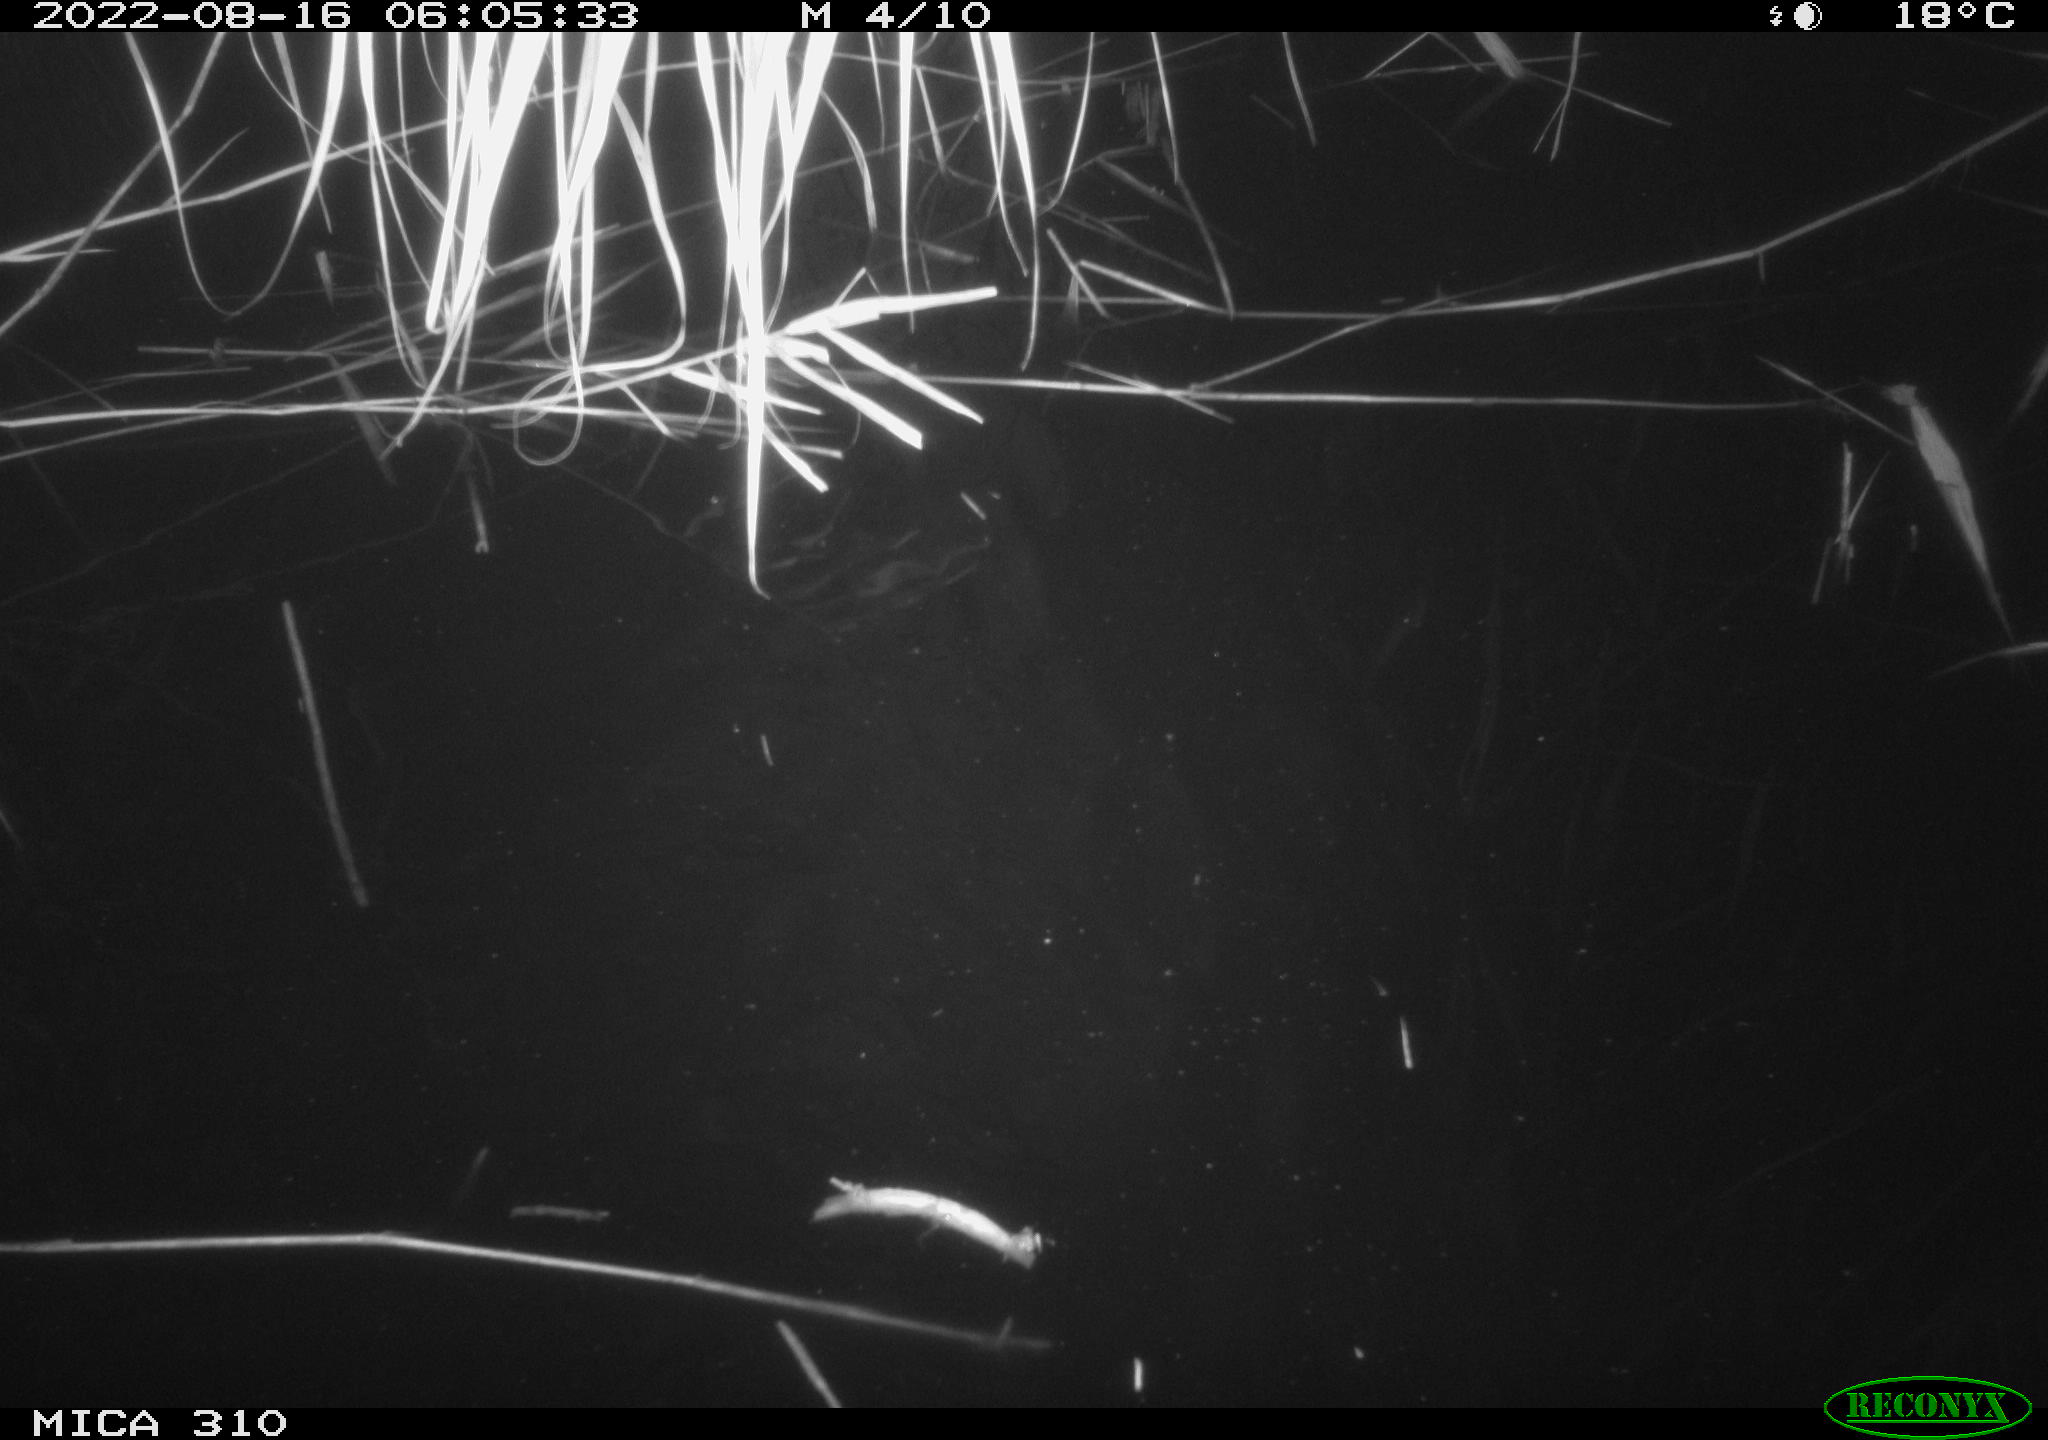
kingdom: Animalia
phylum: Chordata
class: Aves
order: Anseriformes
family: Anatidae
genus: Anas
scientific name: Anas platyrhynchos
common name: Mallard
